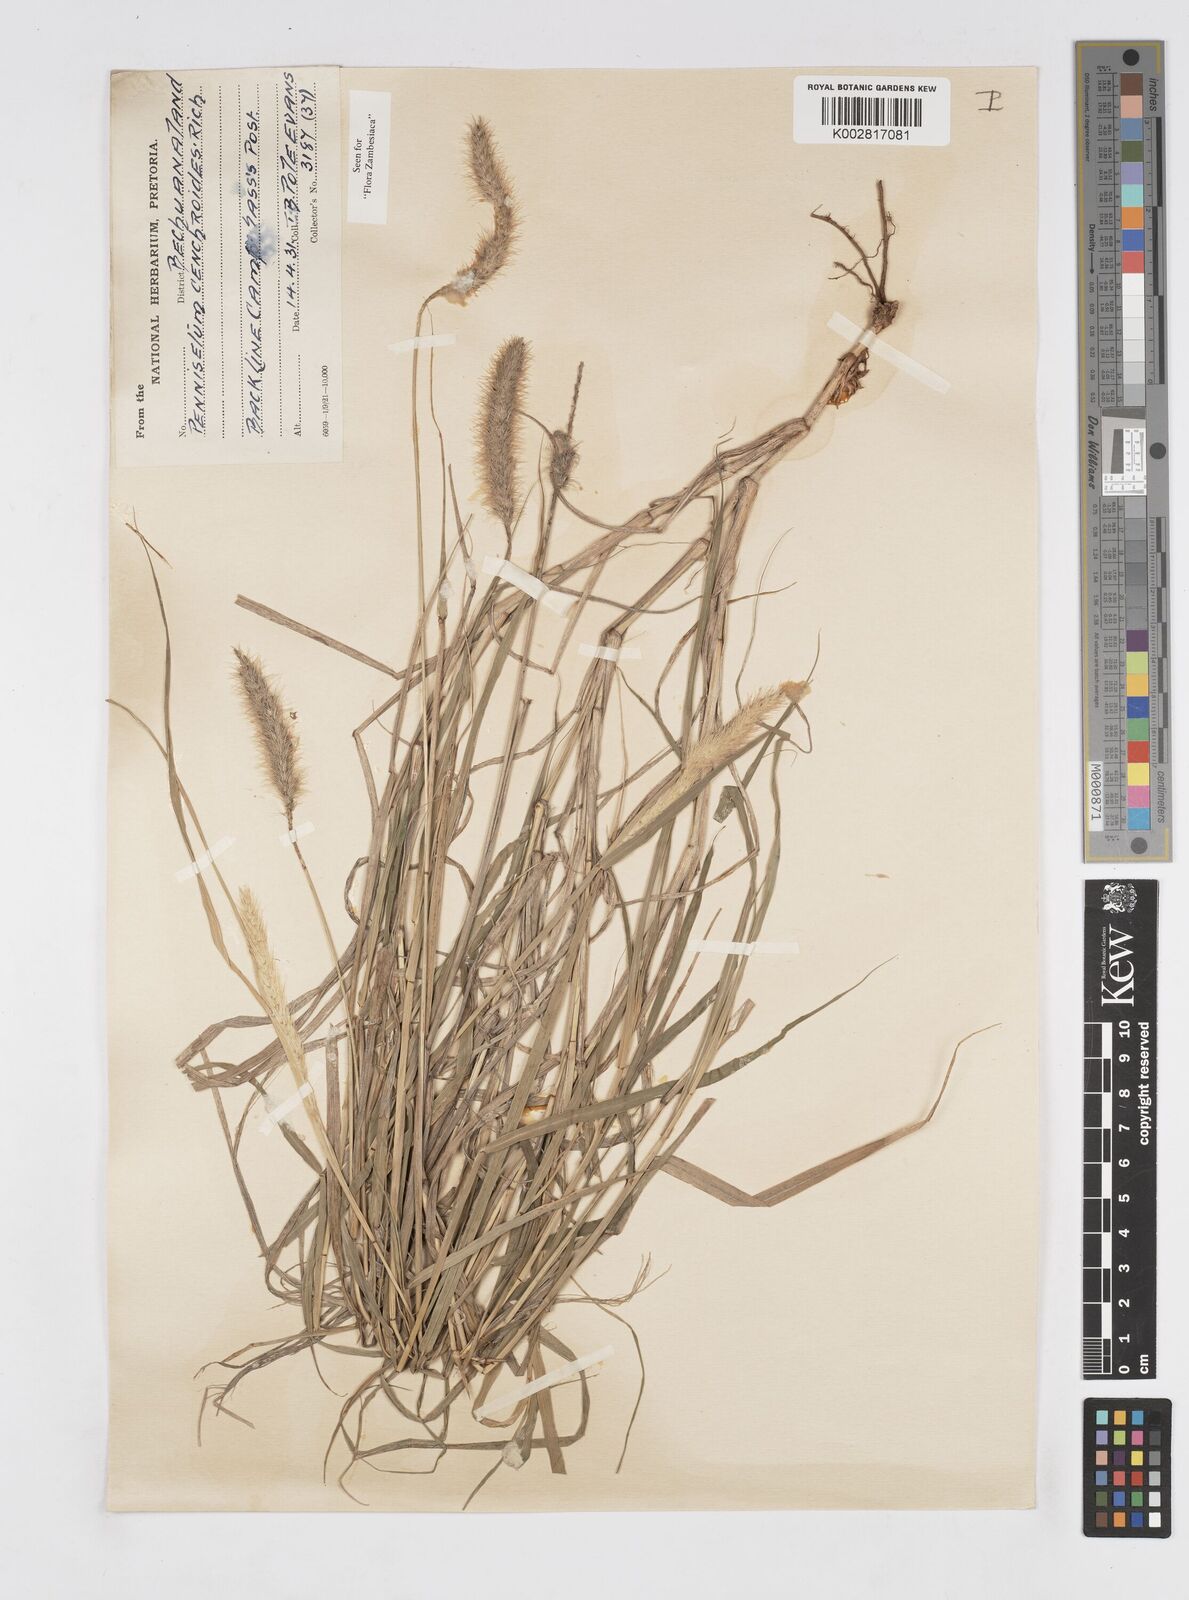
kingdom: Plantae
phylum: Tracheophyta
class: Liliopsida
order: Poales
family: Poaceae
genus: Cenchrus
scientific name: Cenchrus ciliaris
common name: Buffelgrass
